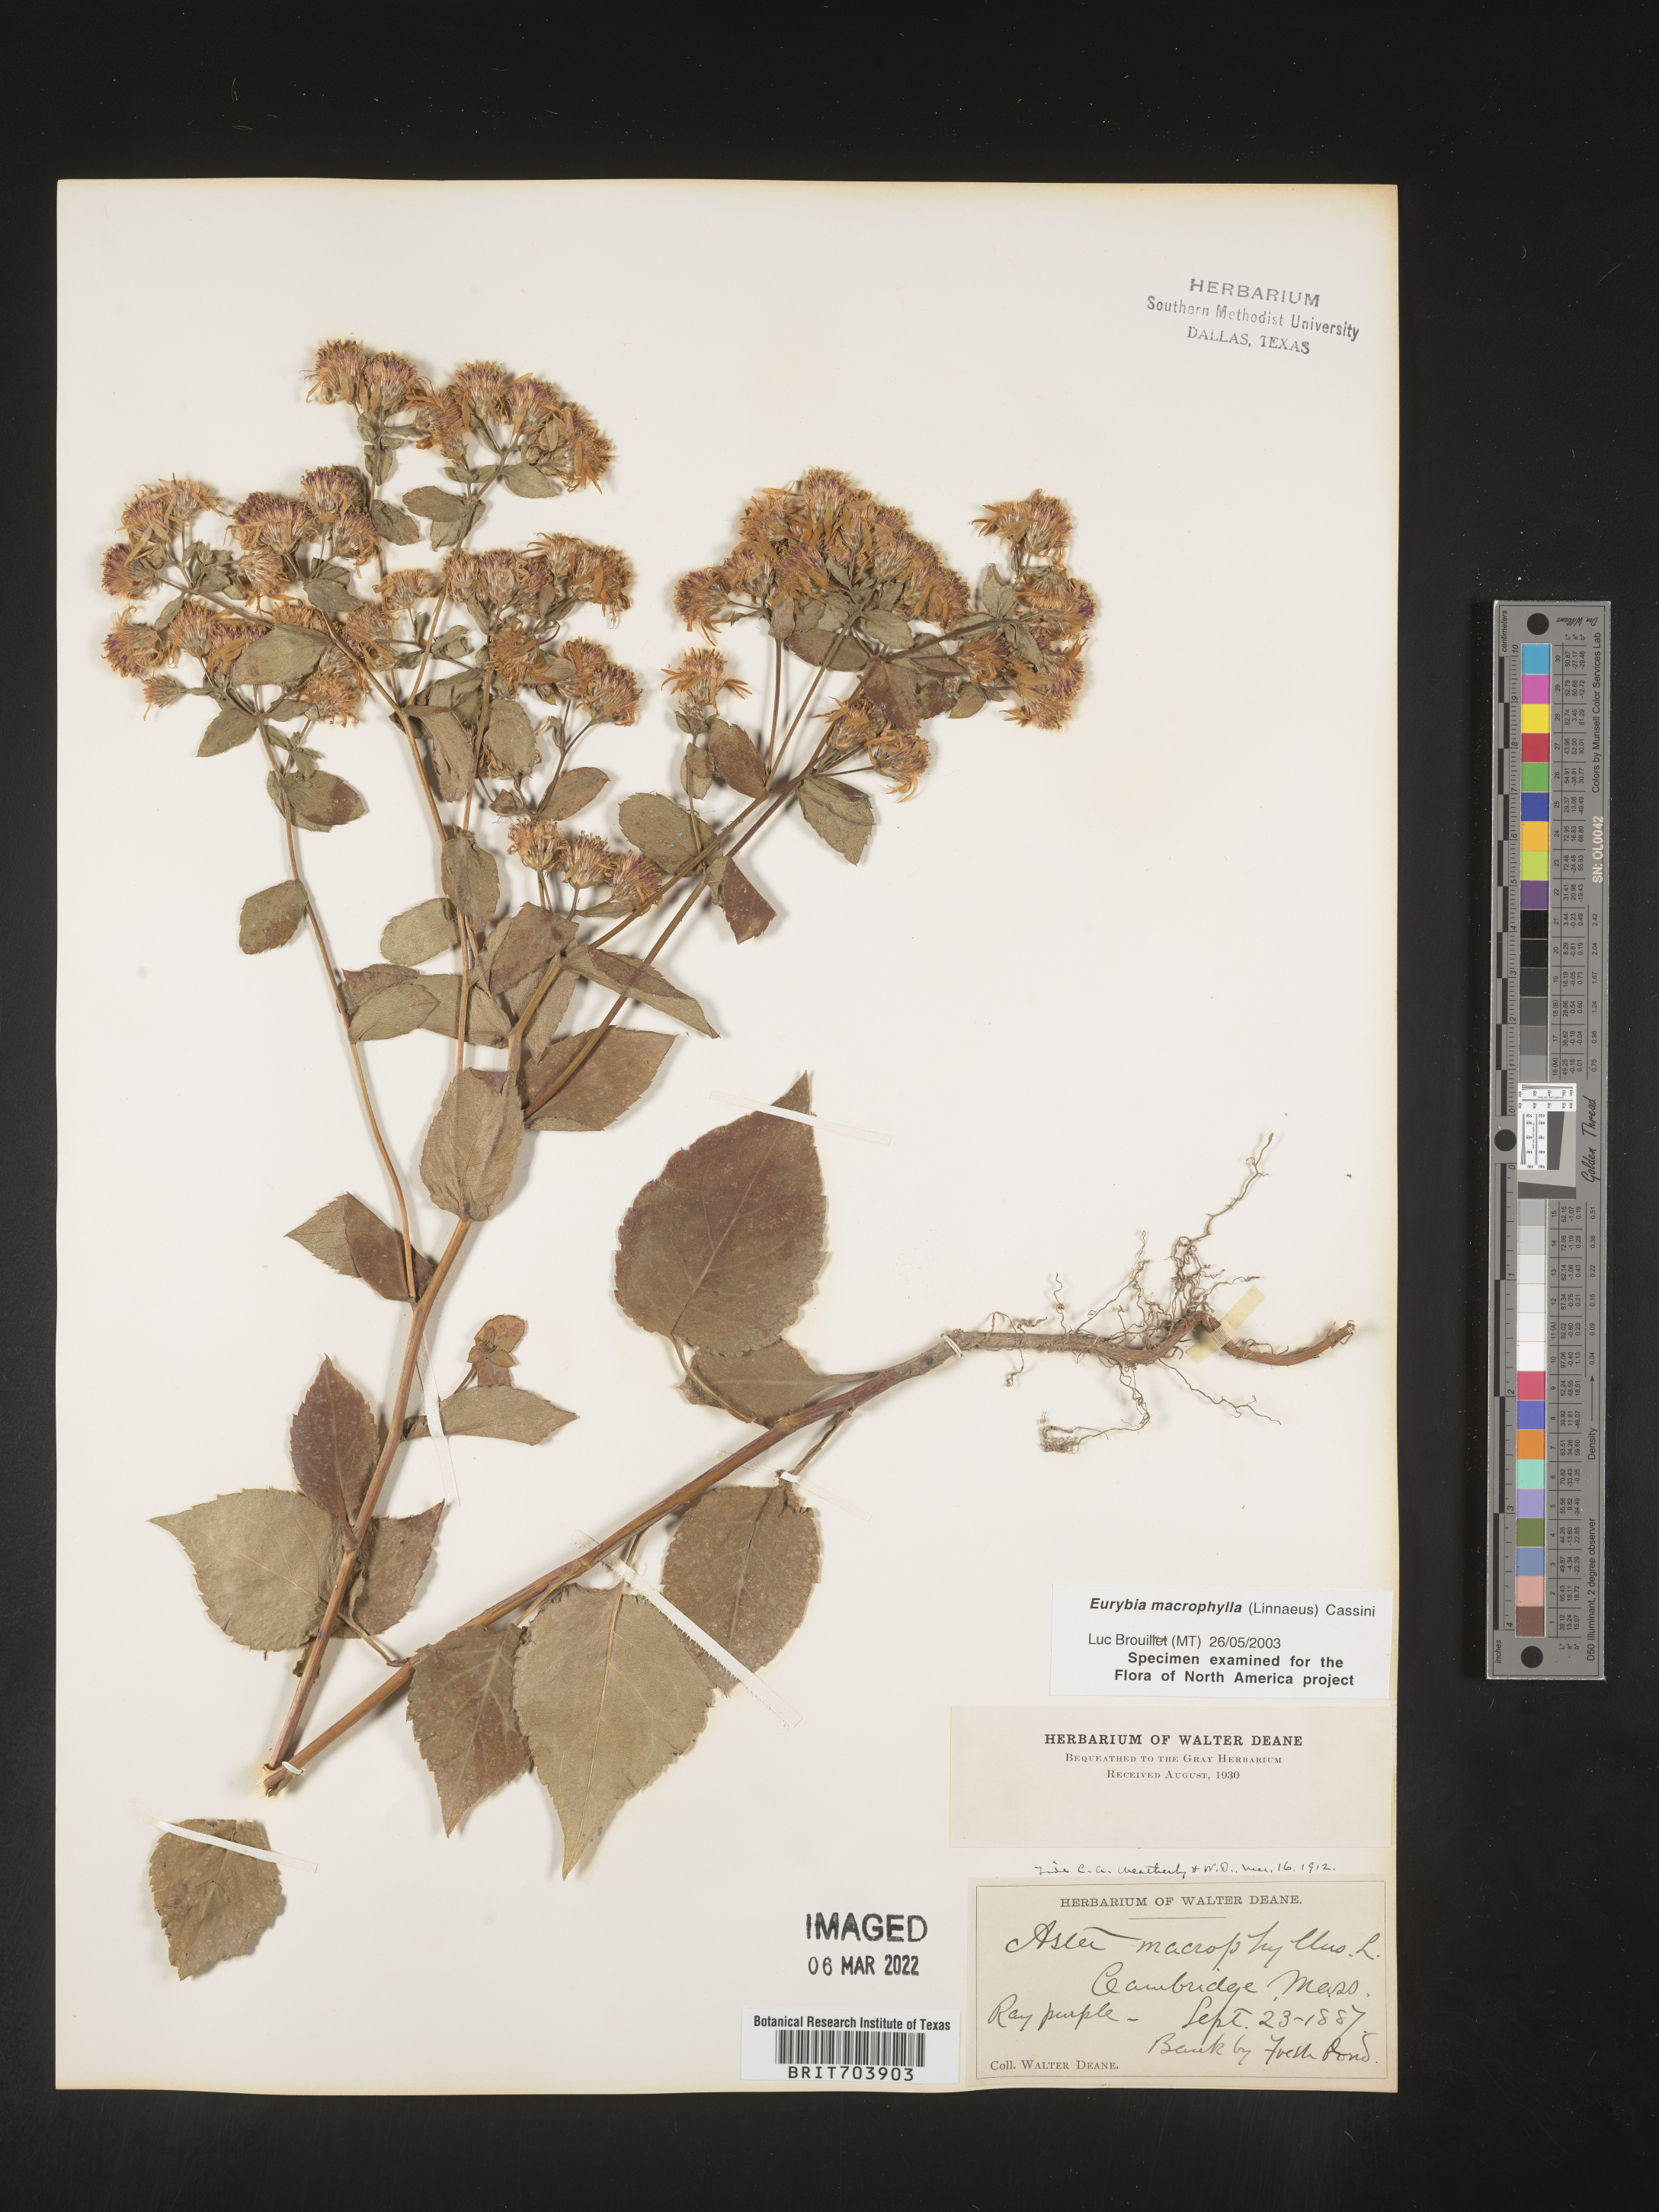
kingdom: Plantae
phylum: Tracheophyta
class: Magnoliopsida
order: Asterales
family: Asteraceae
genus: Eurybia
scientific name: Eurybia macrophylla
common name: Big-leaved aster
